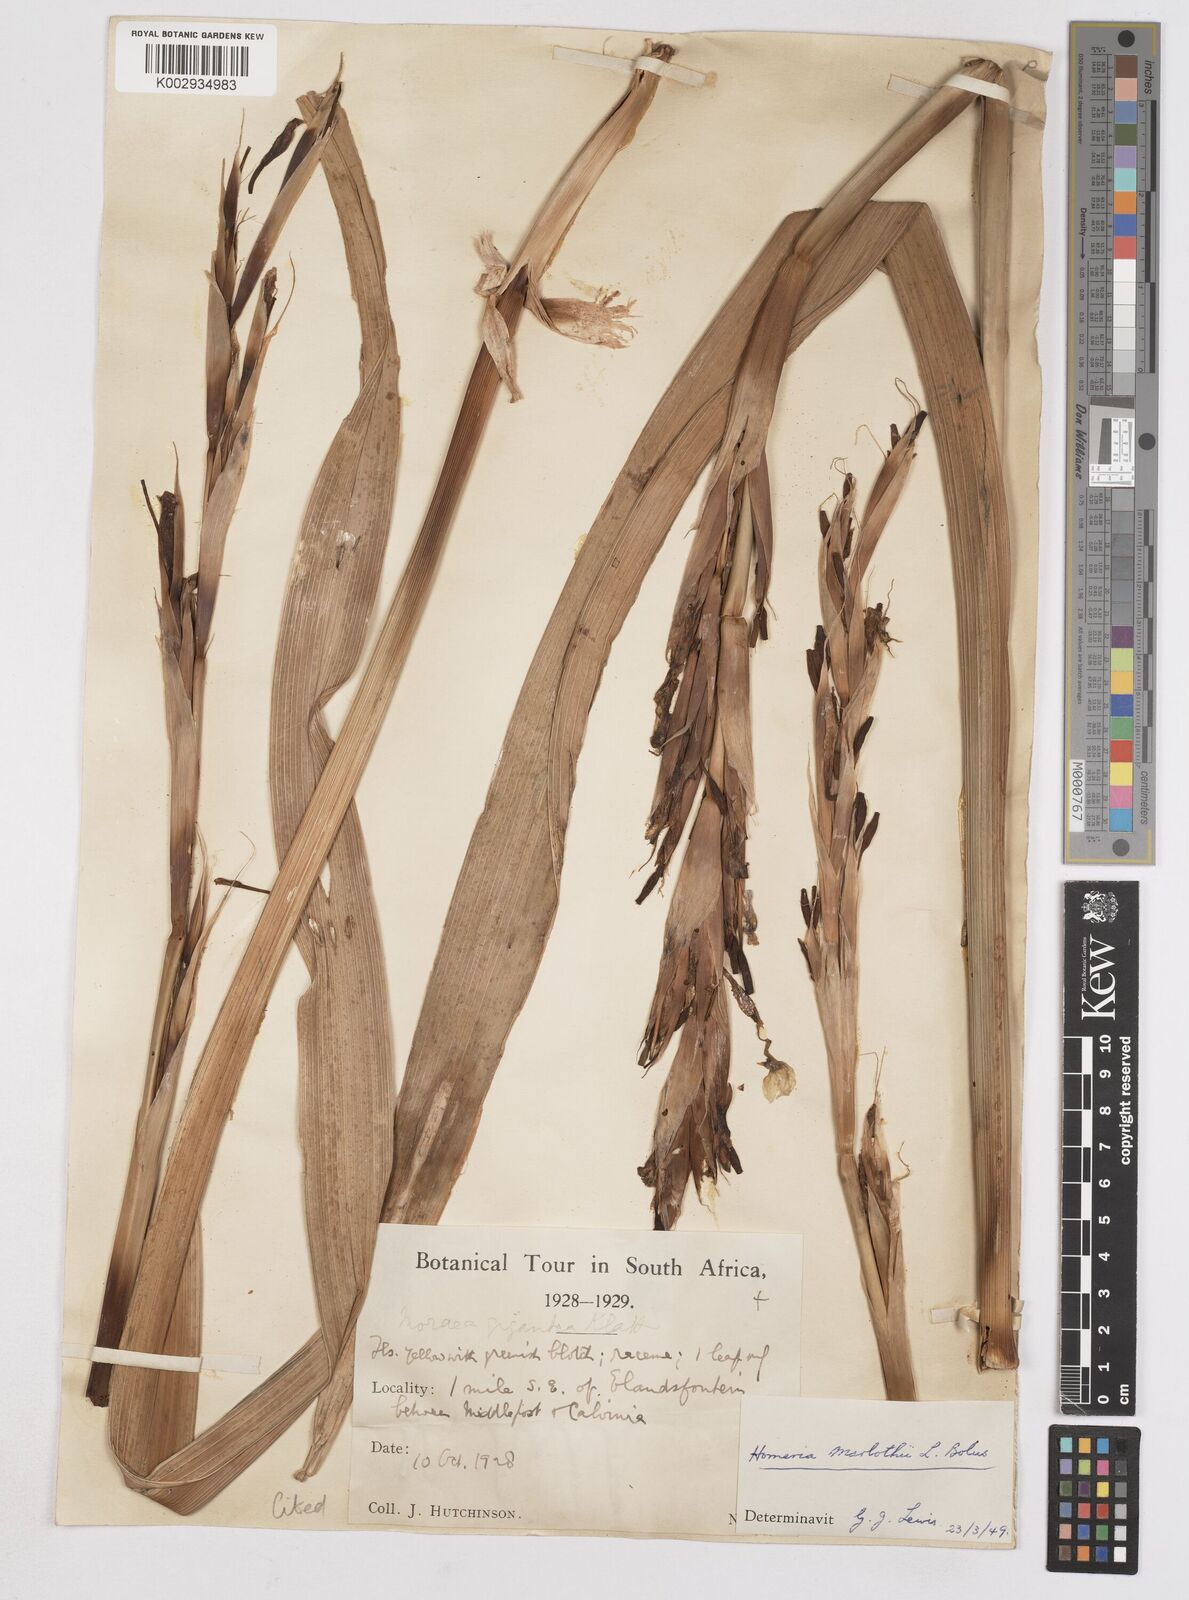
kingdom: Plantae
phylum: Tracheophyta
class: Liliopsida
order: Asparagales
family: Iridaceae
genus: Moraea
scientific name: Moraea marlothii
